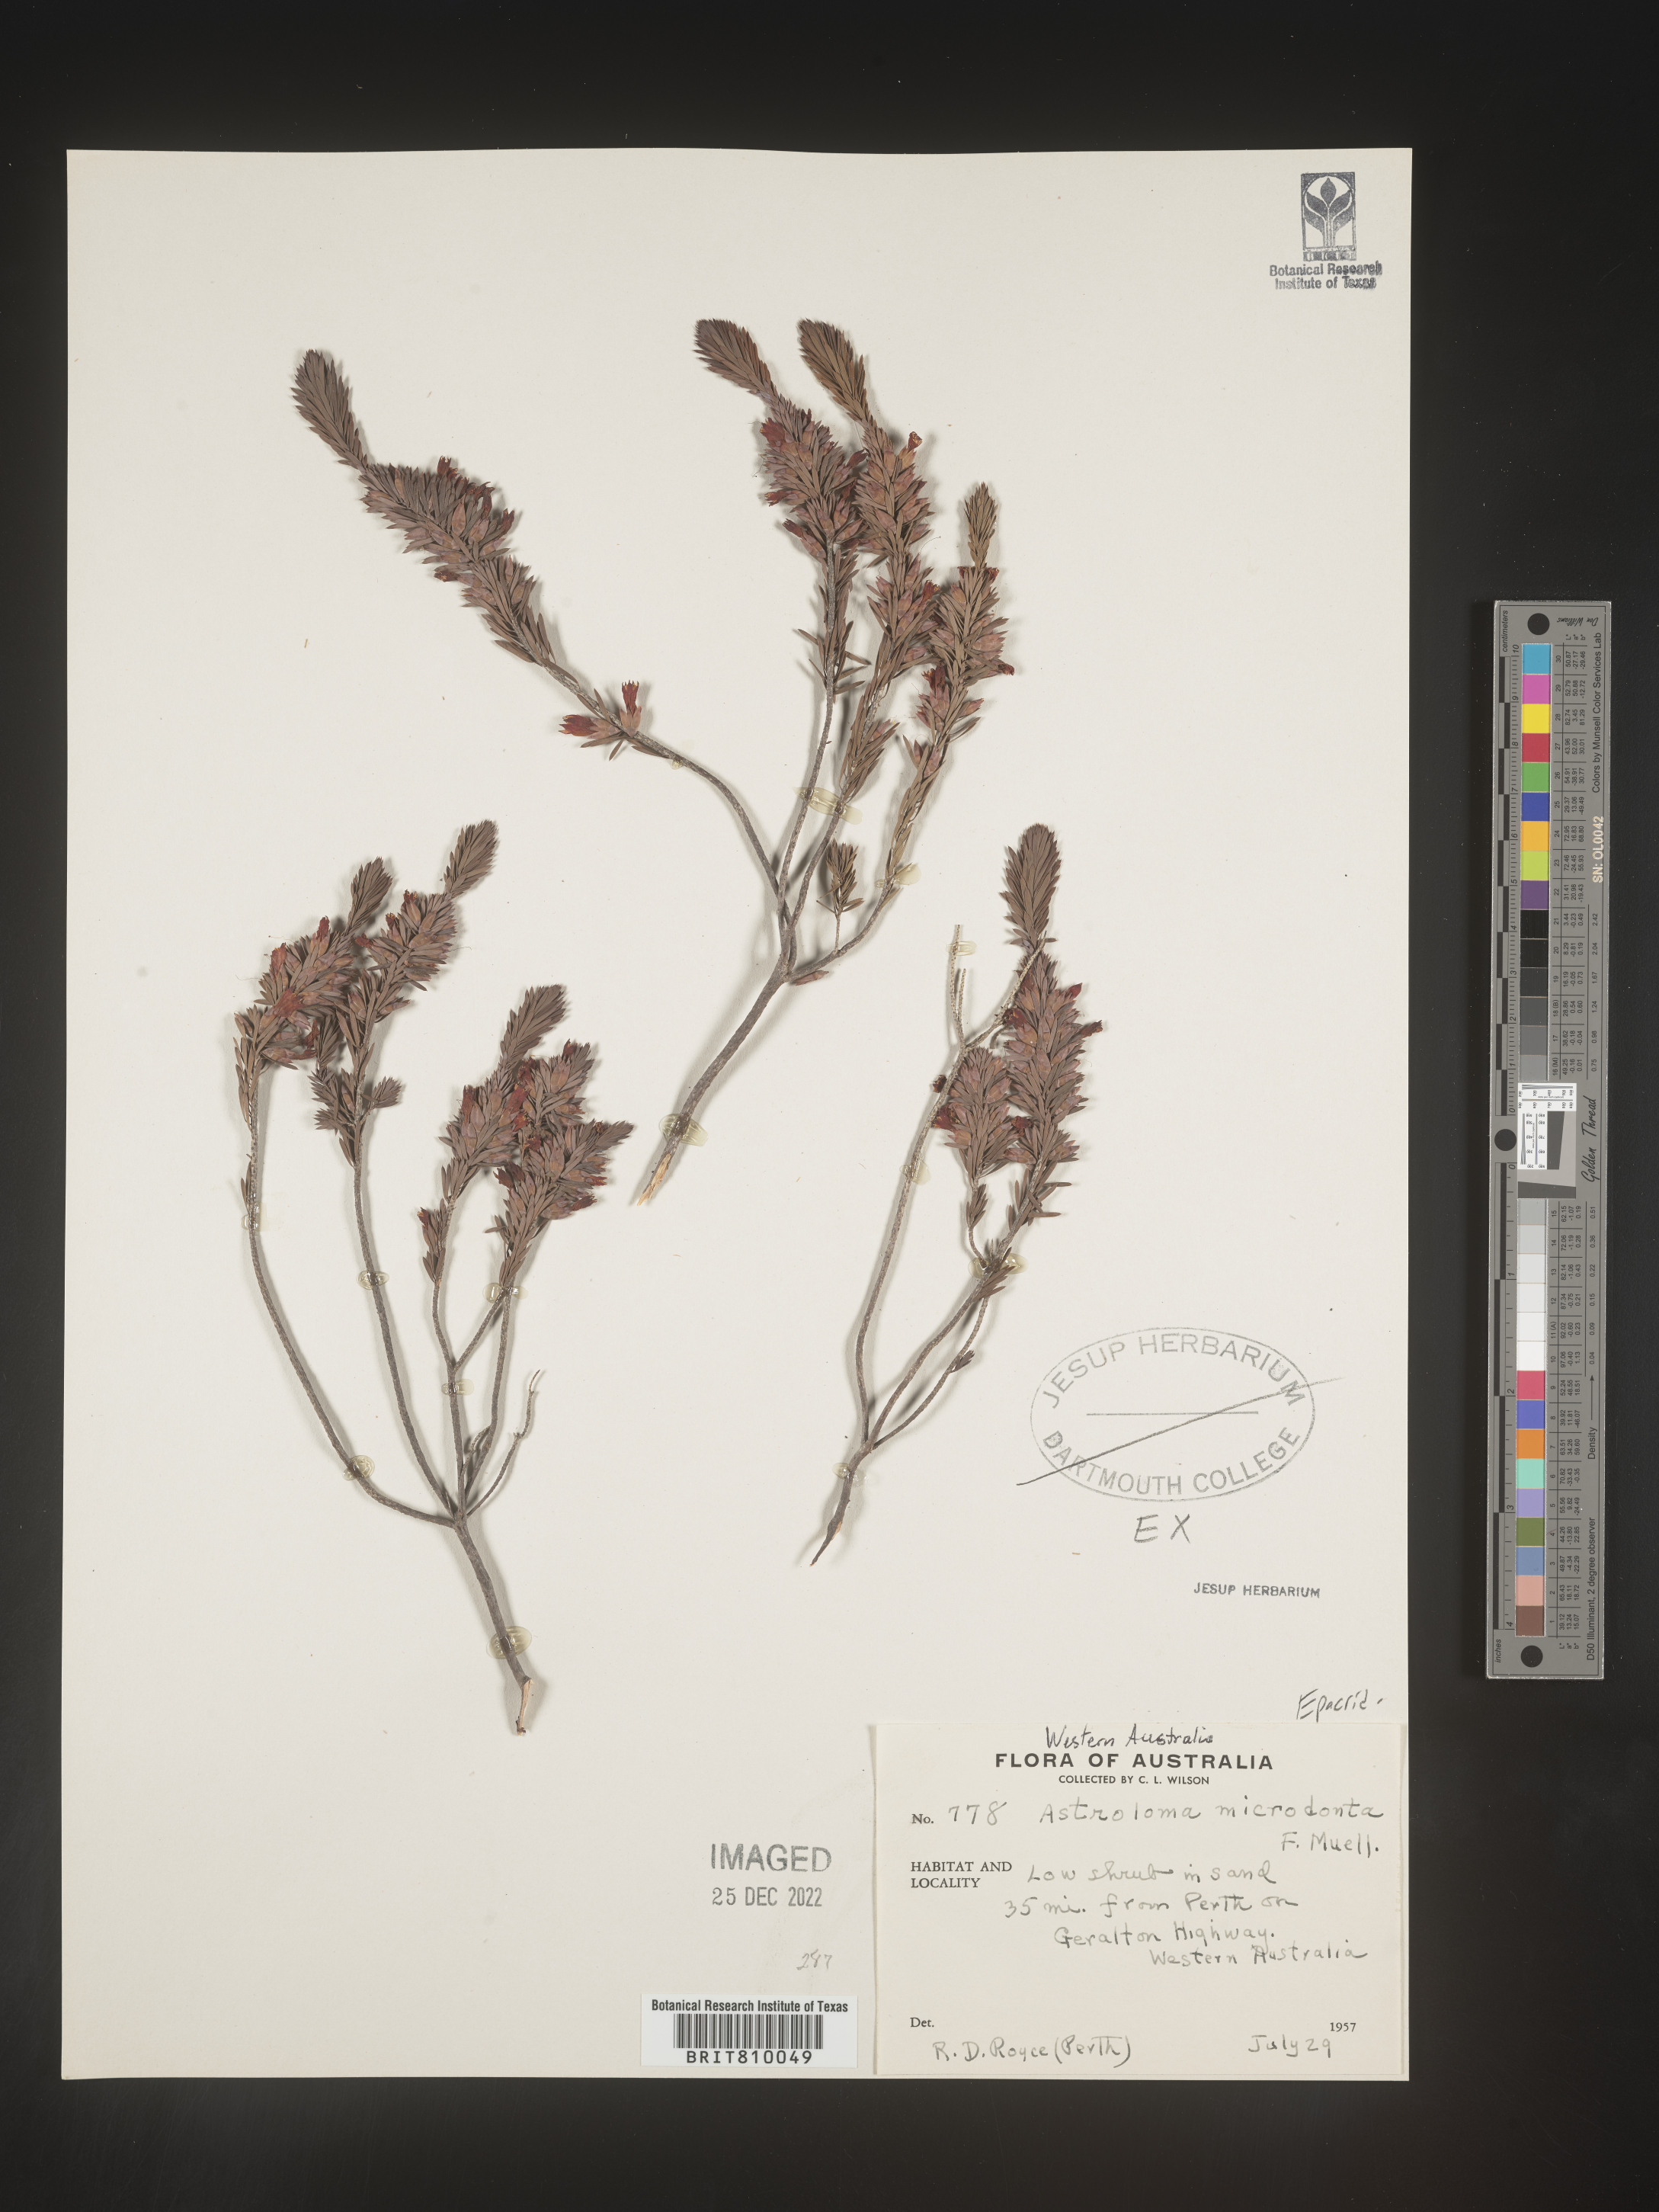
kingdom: Plantae
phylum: Tracheophyta
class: Magnoliopsida
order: Ericales
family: Ericaceae
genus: Styphelia
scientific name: Styphelia
